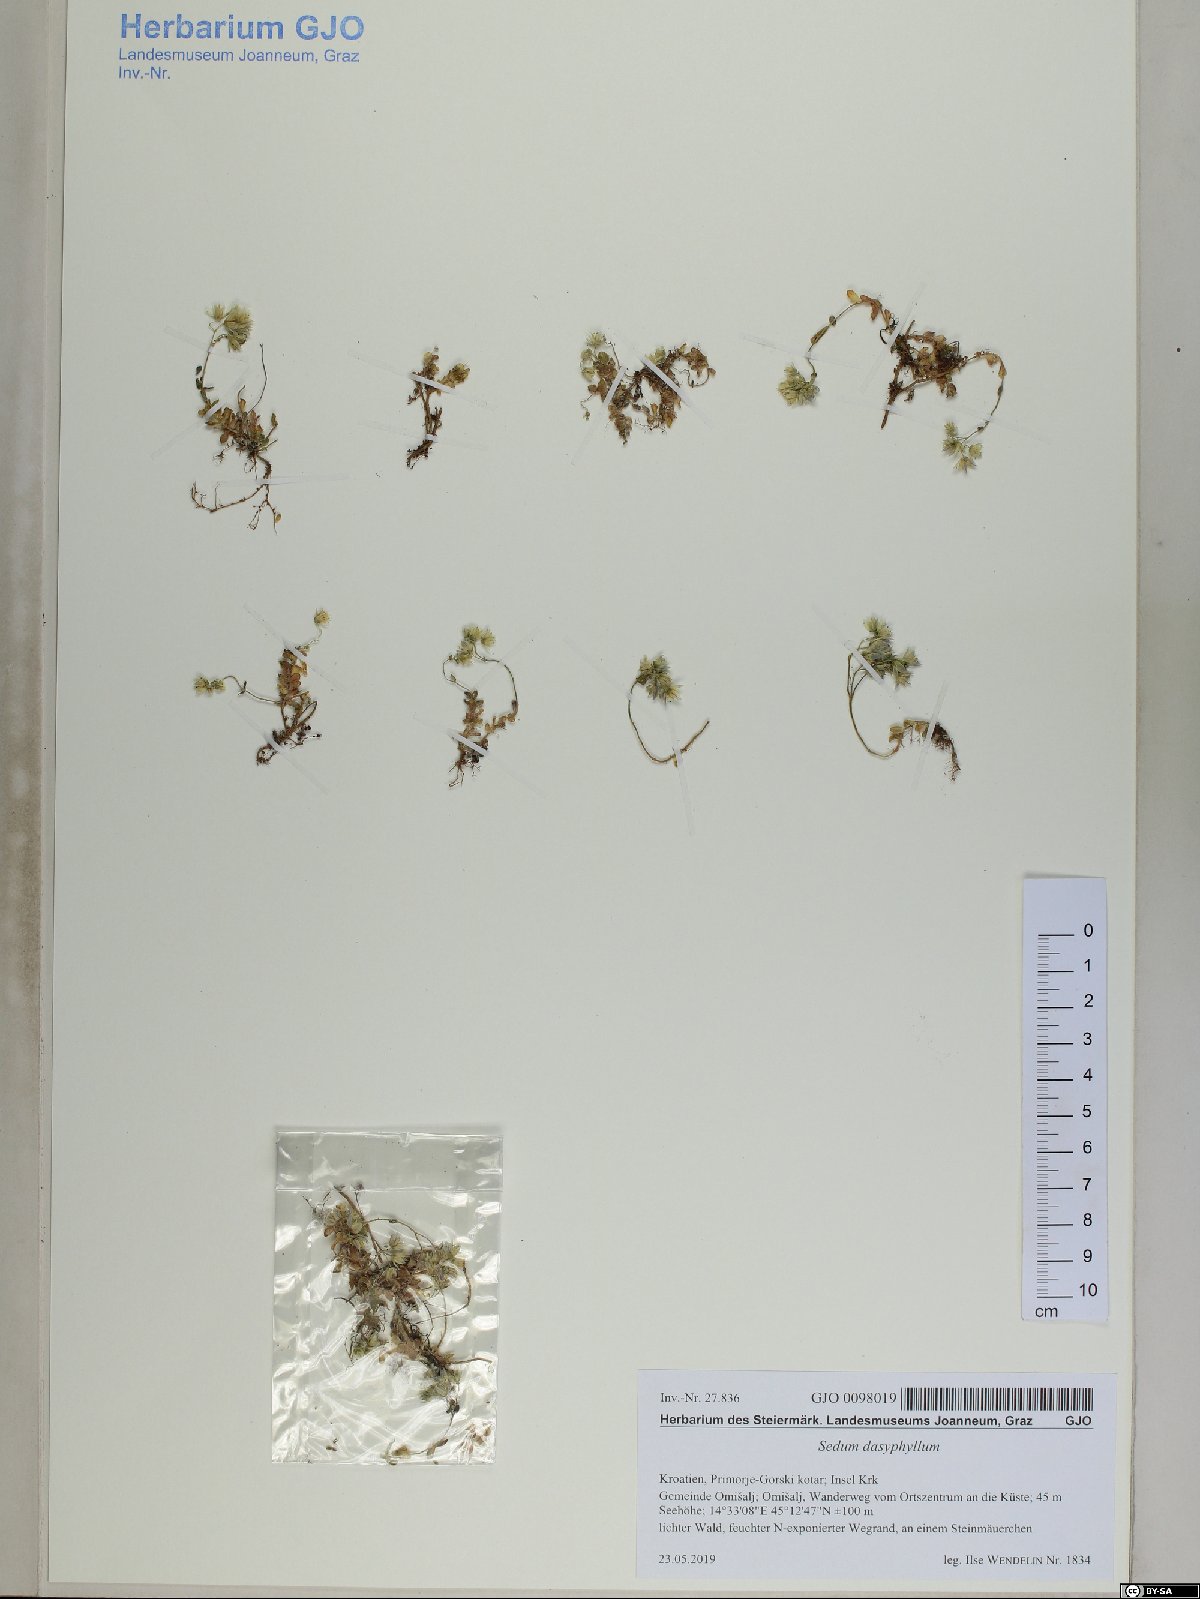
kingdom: Plantae
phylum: Tracheophyta
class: Magnoliopsida
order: Saxifragales
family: Crassulaceae
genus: Sedum
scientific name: Sedum dasyphyllum
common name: Thick-leaf stonecrop
